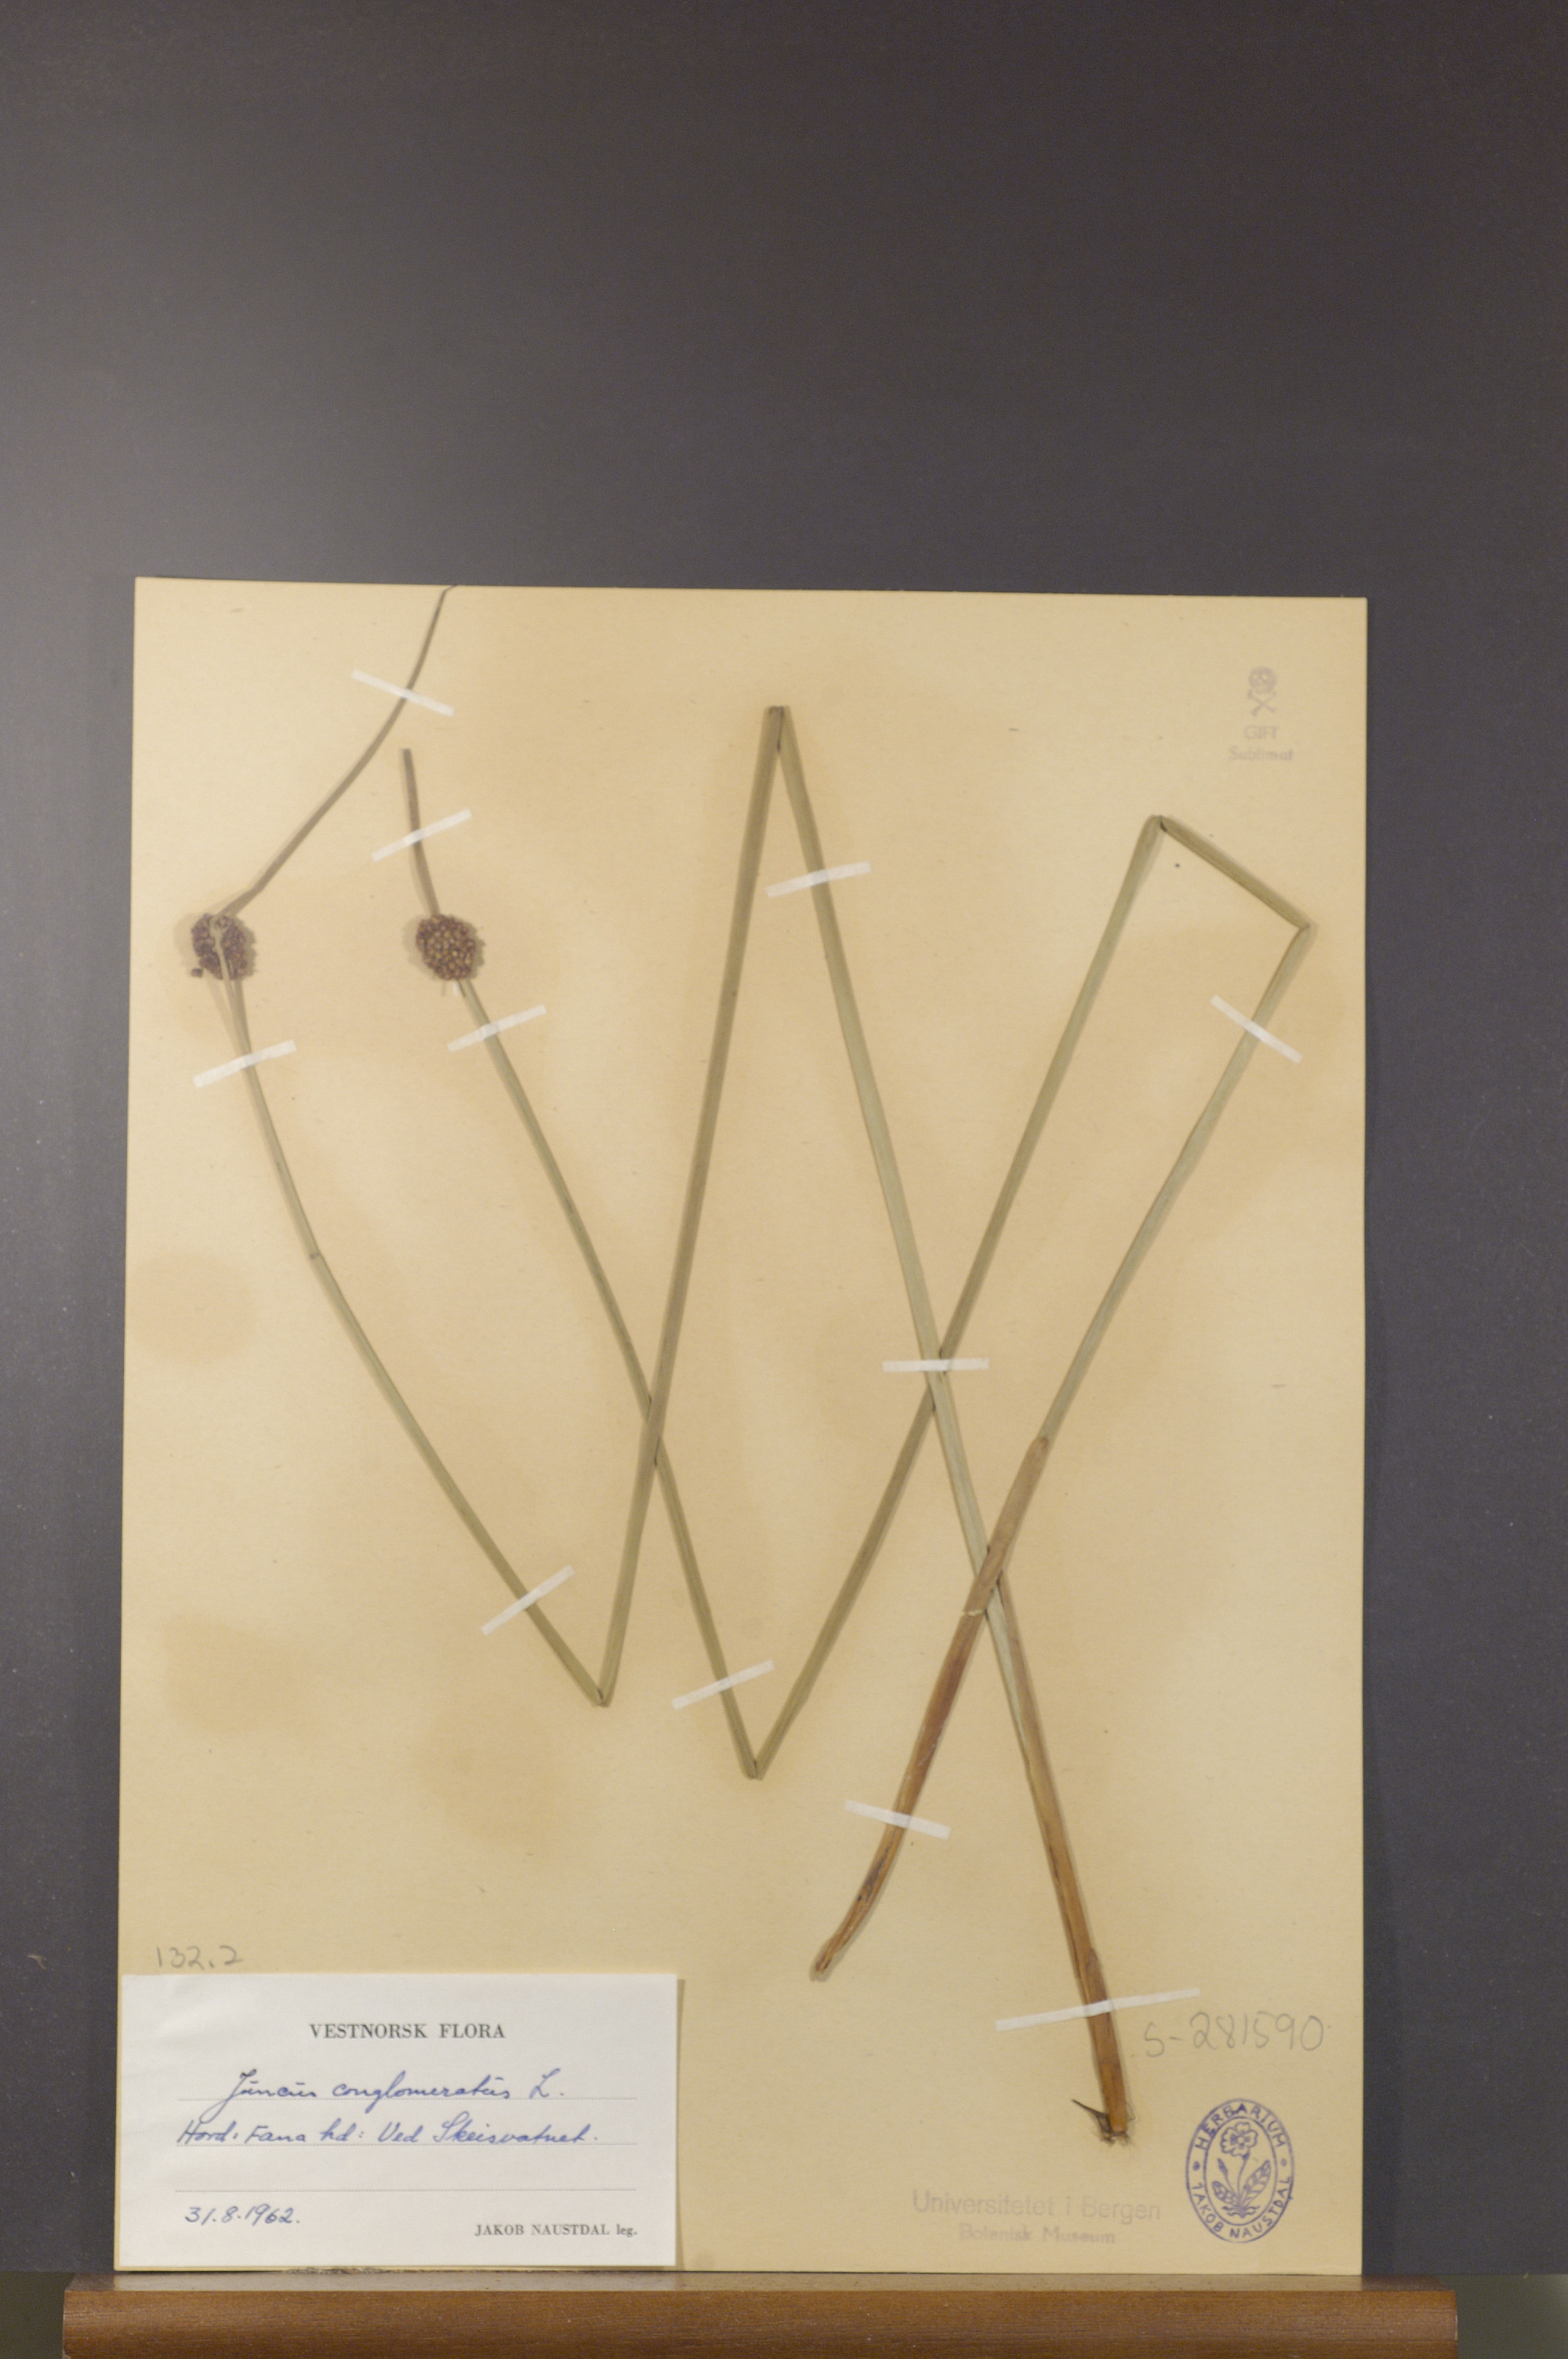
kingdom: Plantae
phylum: Tracheophyta
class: Liliopsida
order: Poales
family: Juncaceae
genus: Juncus
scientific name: Juncus conglomeratus
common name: Compact rush
